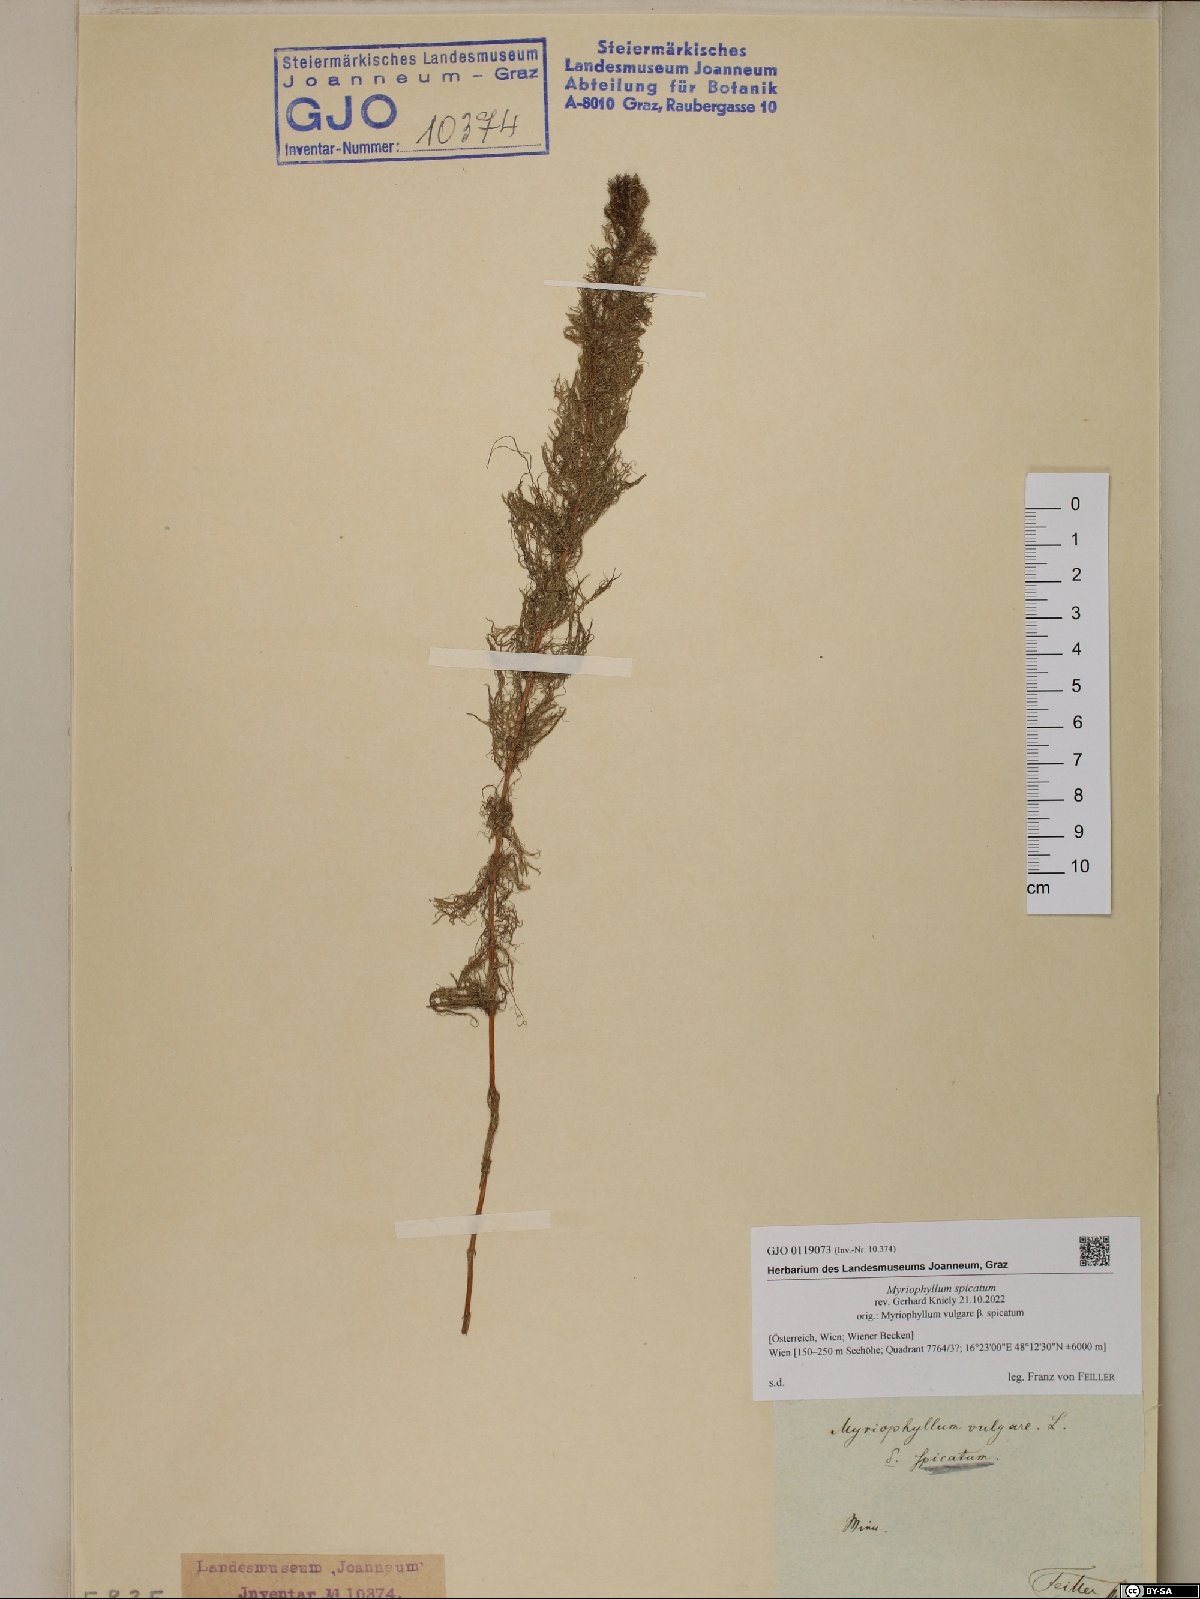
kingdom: Plantae
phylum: Tracheophyta
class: Magnoliopsida
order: Saxifragales
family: Haloragaceae
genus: Myriophyllum
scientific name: Myriophyllum spicatum
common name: Spiked water-milfoil
